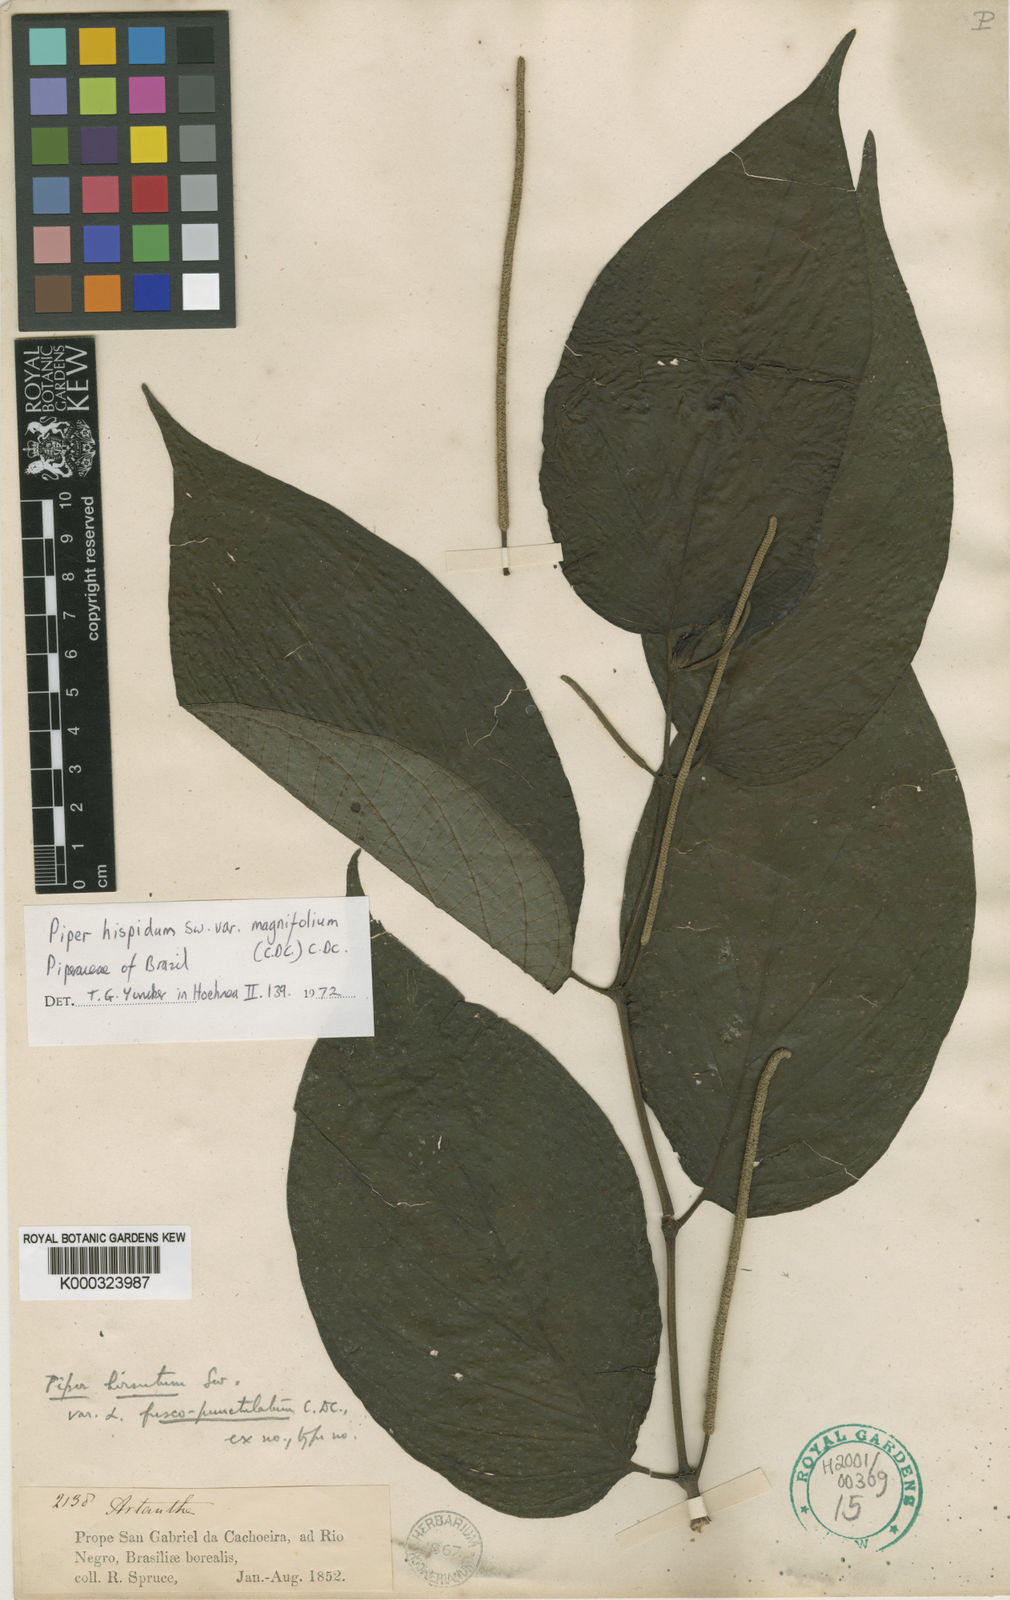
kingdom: Plantae
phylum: Tracheophyta
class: Magnoliopsida
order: Piperales
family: Piperaceae
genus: Piper
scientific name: Piper hispidum
